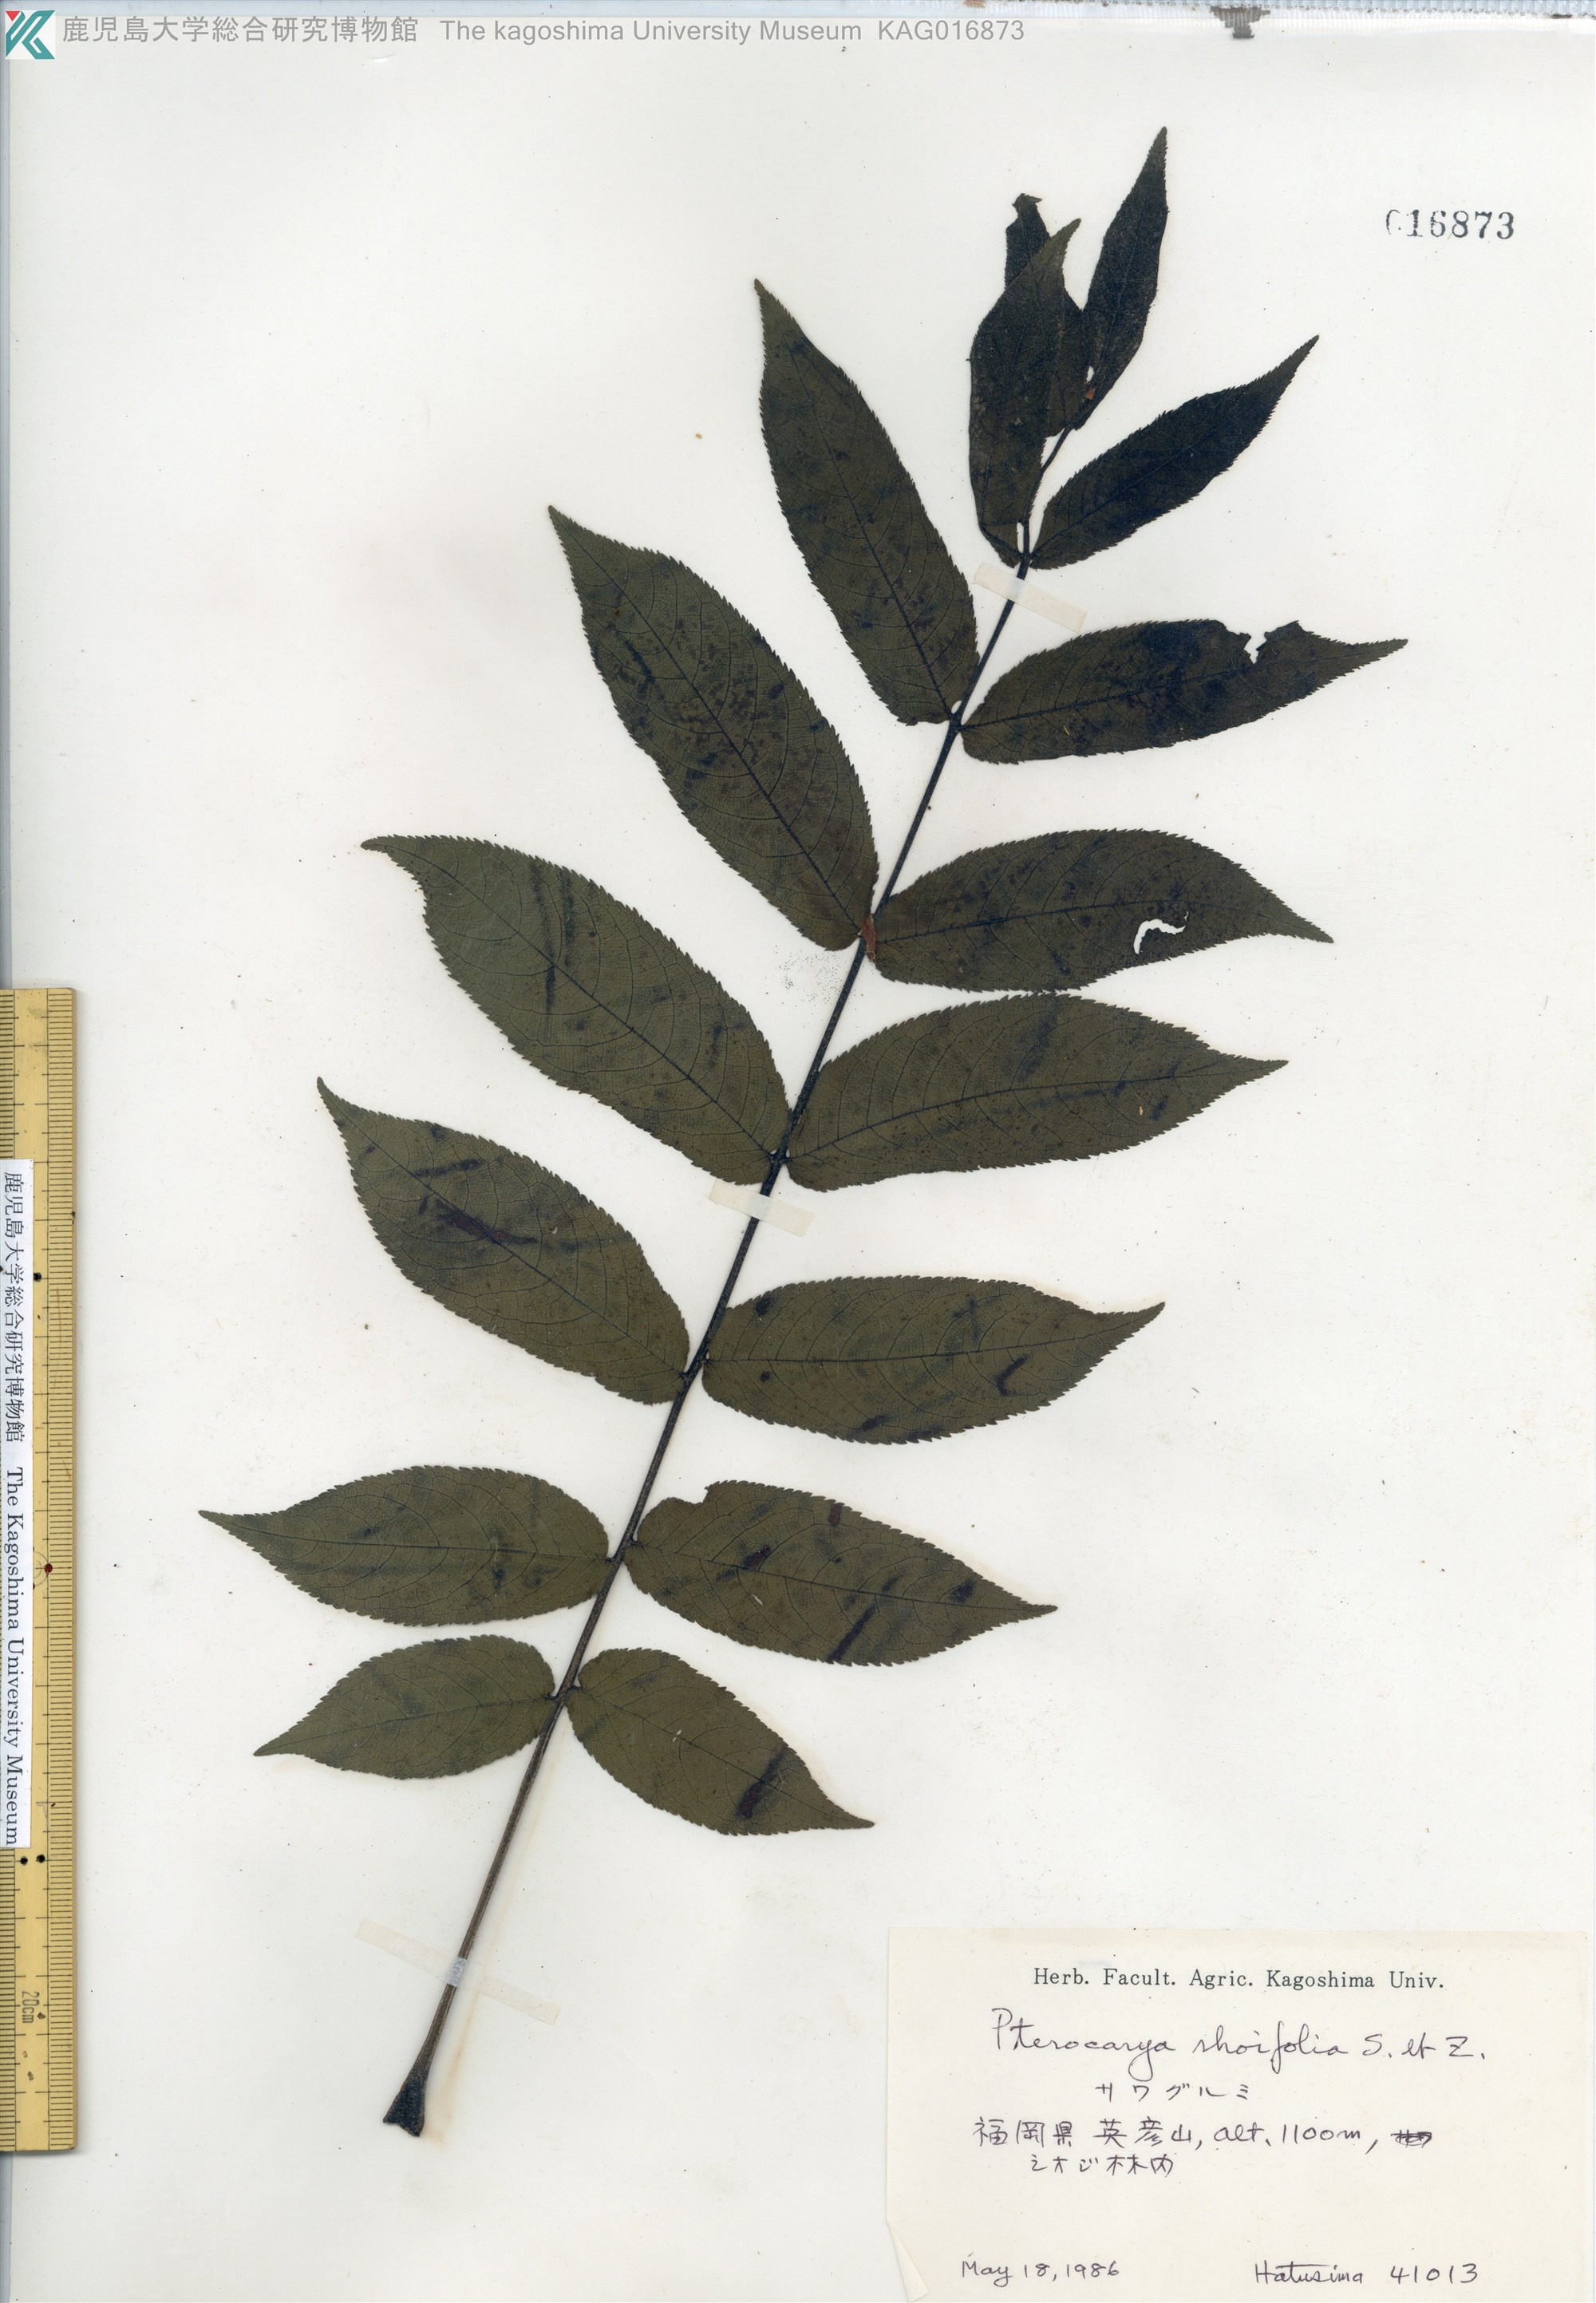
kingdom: Plantae
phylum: Tracheophyta
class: Magnoliopsida
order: Fagales
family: Juglandaceae
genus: Pterocarya
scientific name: Pterocarya rhoifolia
